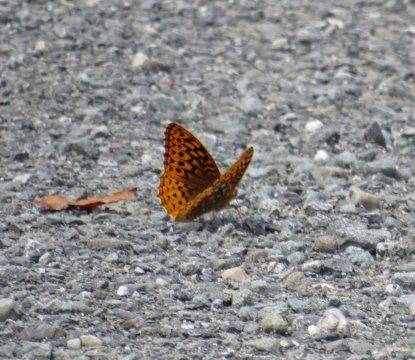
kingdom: Animalia
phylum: Arthropoda
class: Insecta
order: Lepidoptera
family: Nymphalidae
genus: Speyeria
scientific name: Speyeria cybele
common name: Great Spangled Fritillary
